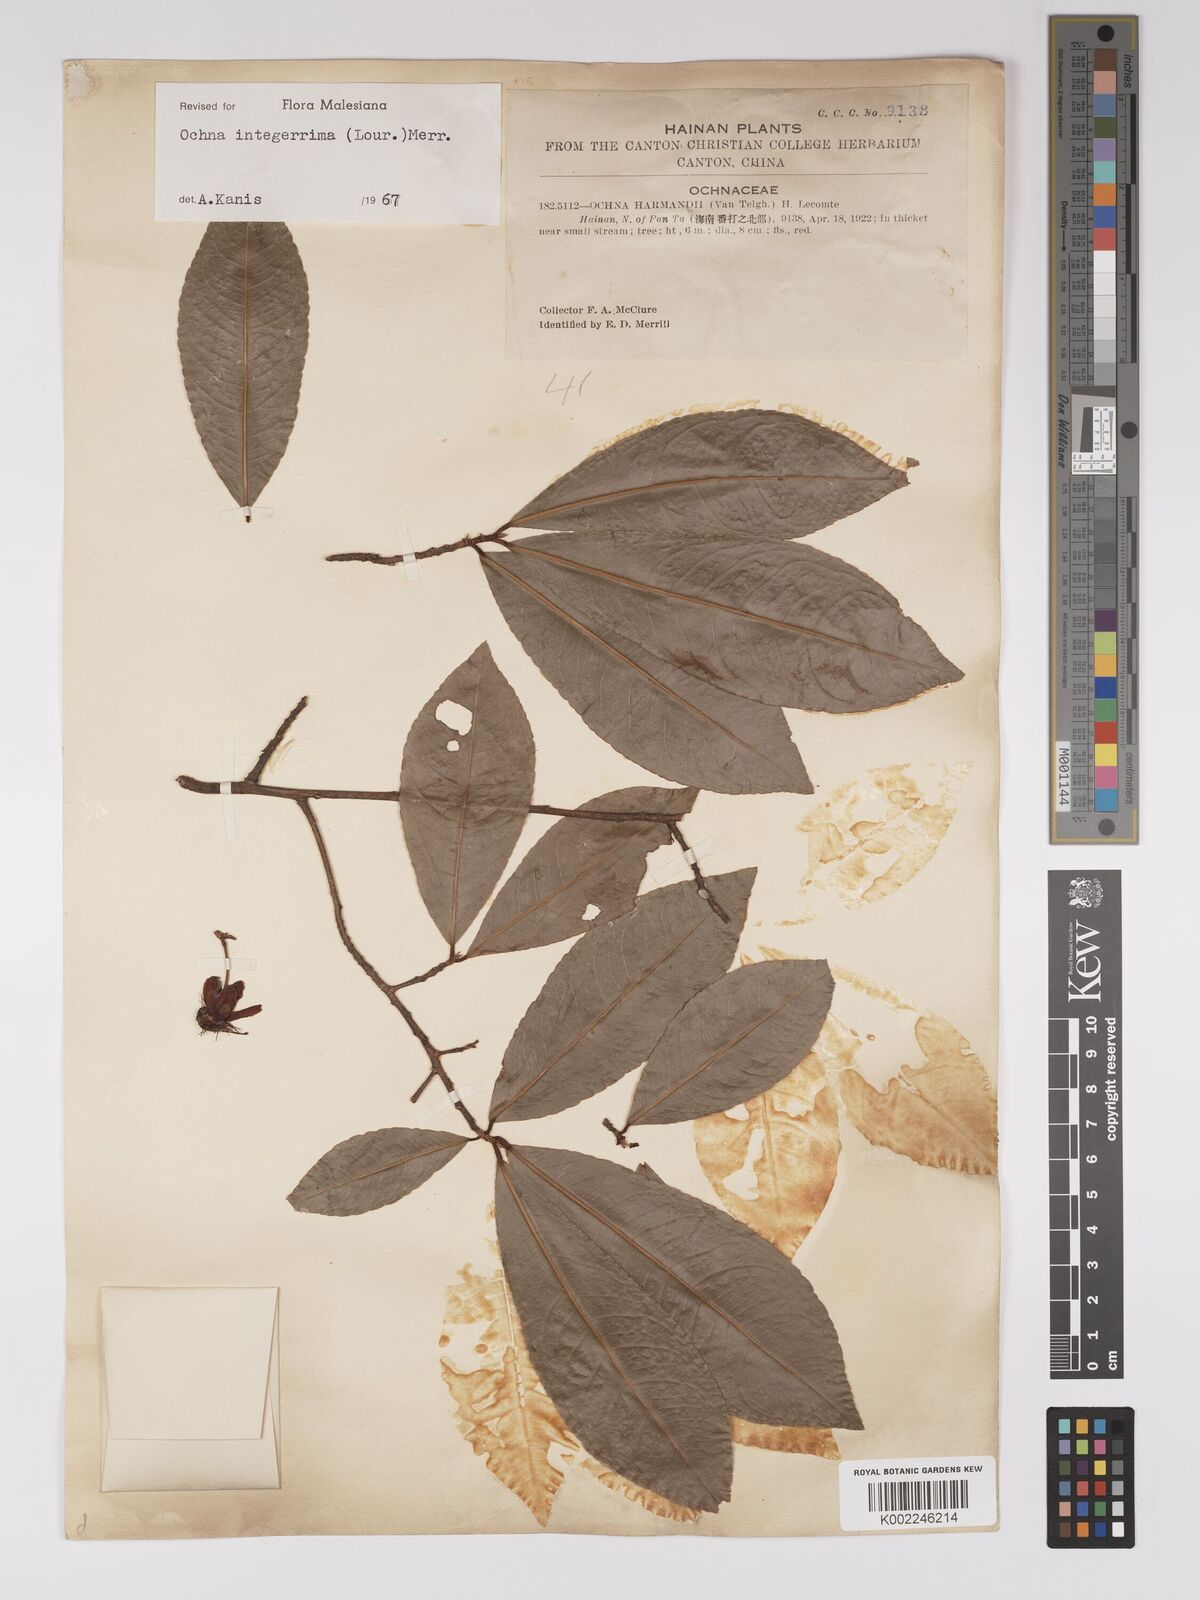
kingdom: Plantae
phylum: Tracheophyta
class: Magnoliopsida
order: Malpighiales
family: Ochnaceae
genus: Ochna
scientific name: Ochna integerrima
